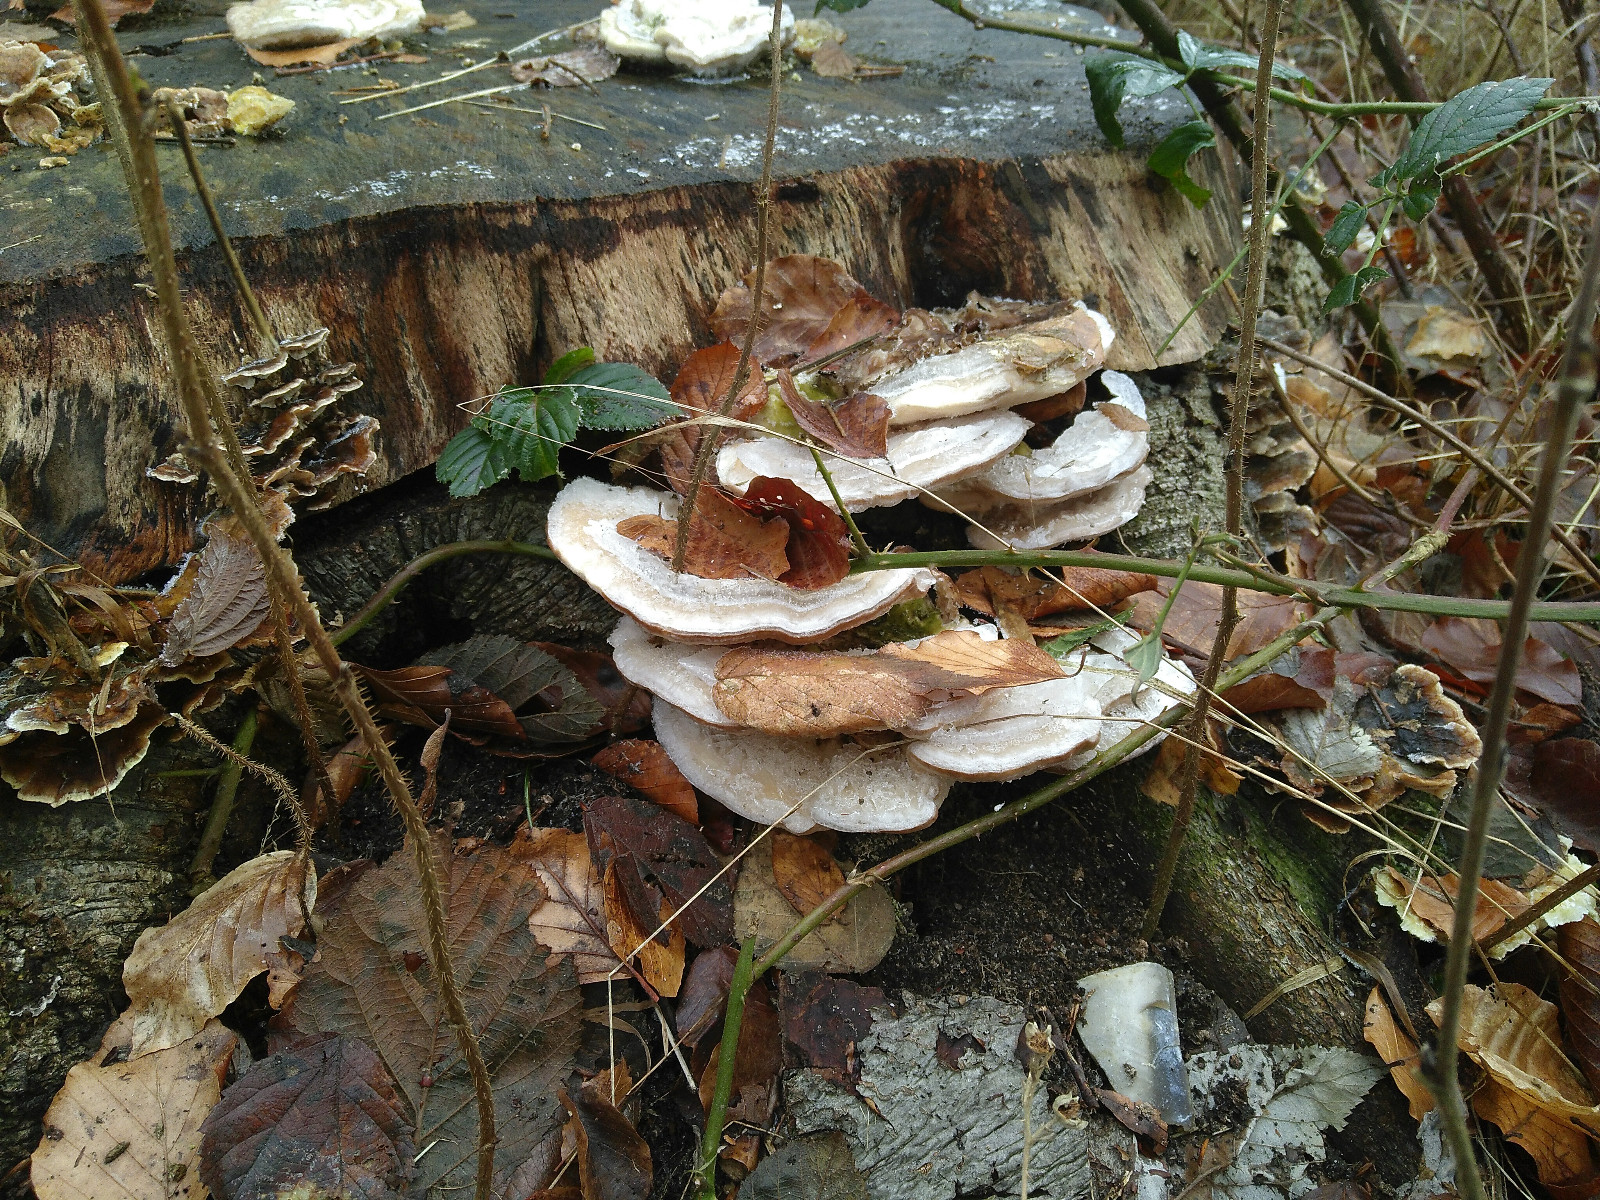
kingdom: Fungi
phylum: Basidiomycota
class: Agaricomycetes
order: Polyporales
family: Polyporaceae
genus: Trametes
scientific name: Trametes gibbosa
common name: puklet læderporesvamp
